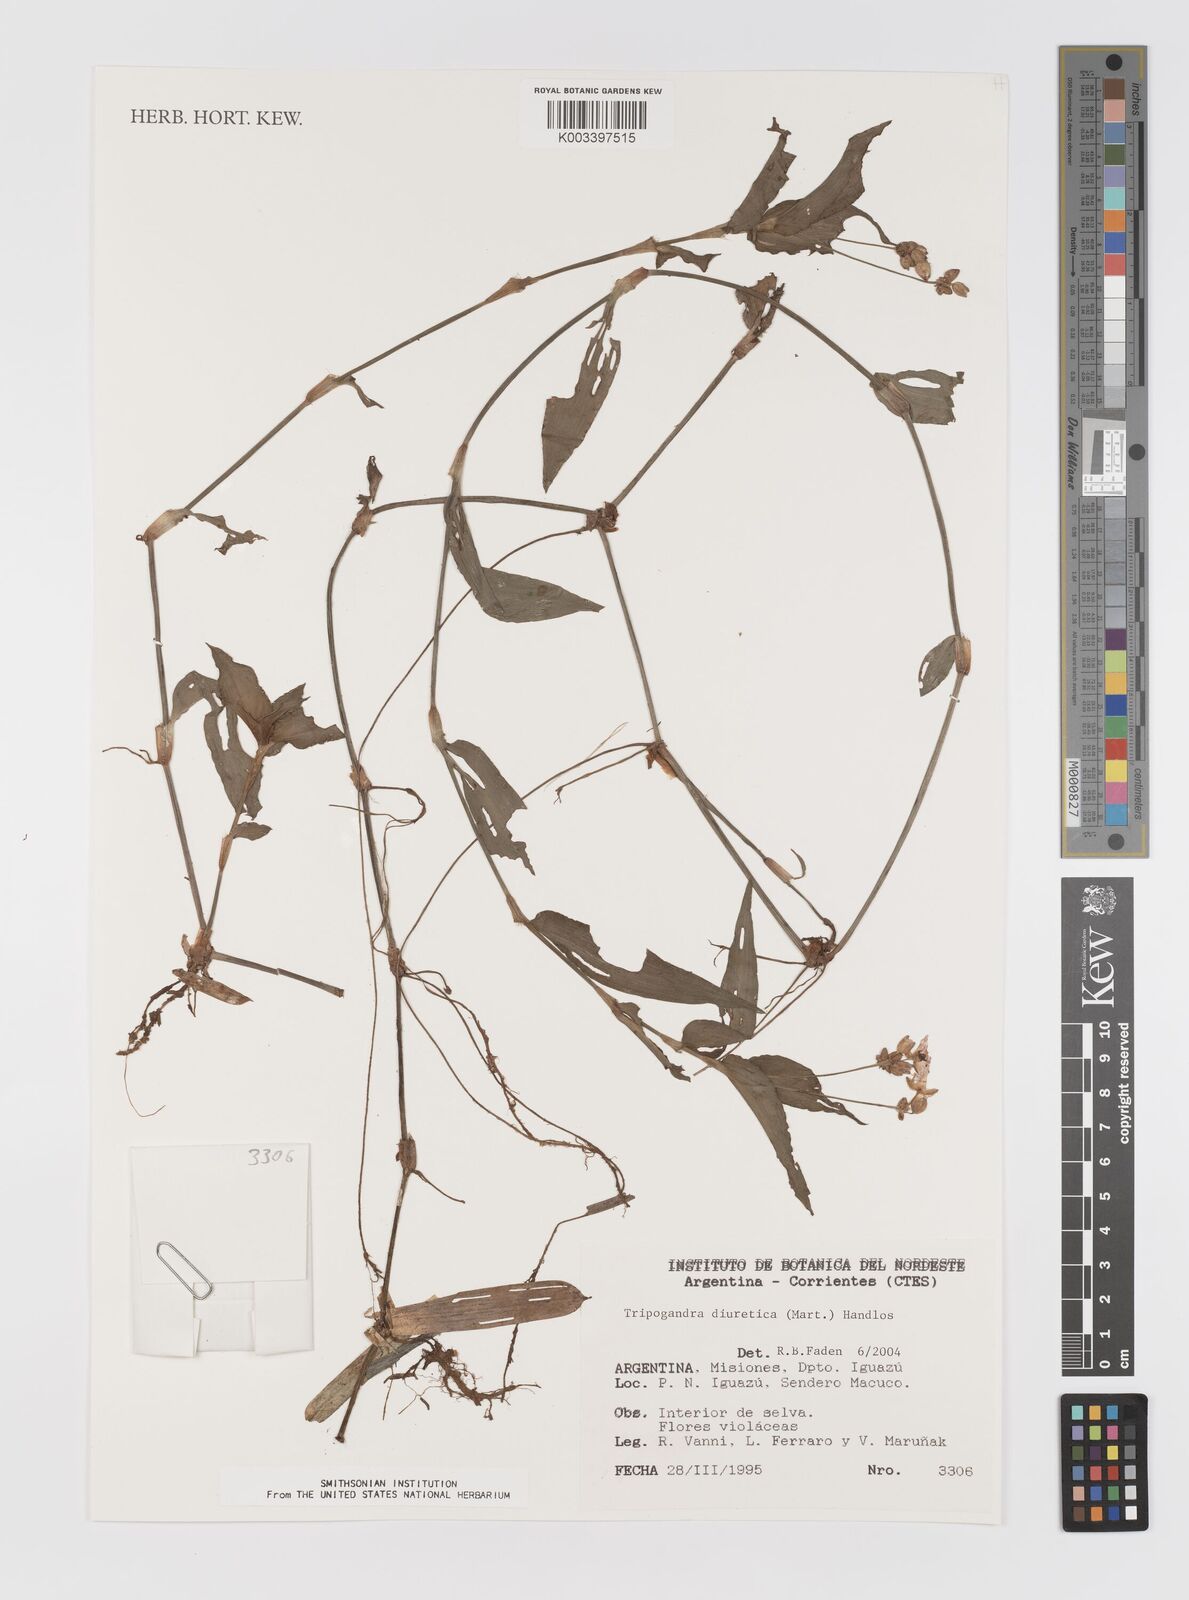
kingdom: Plantae
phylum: Tracheophyta
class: Liliopsida
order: Commelinales
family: Commelinaceae
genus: Callisia
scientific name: Callisia diuretica
